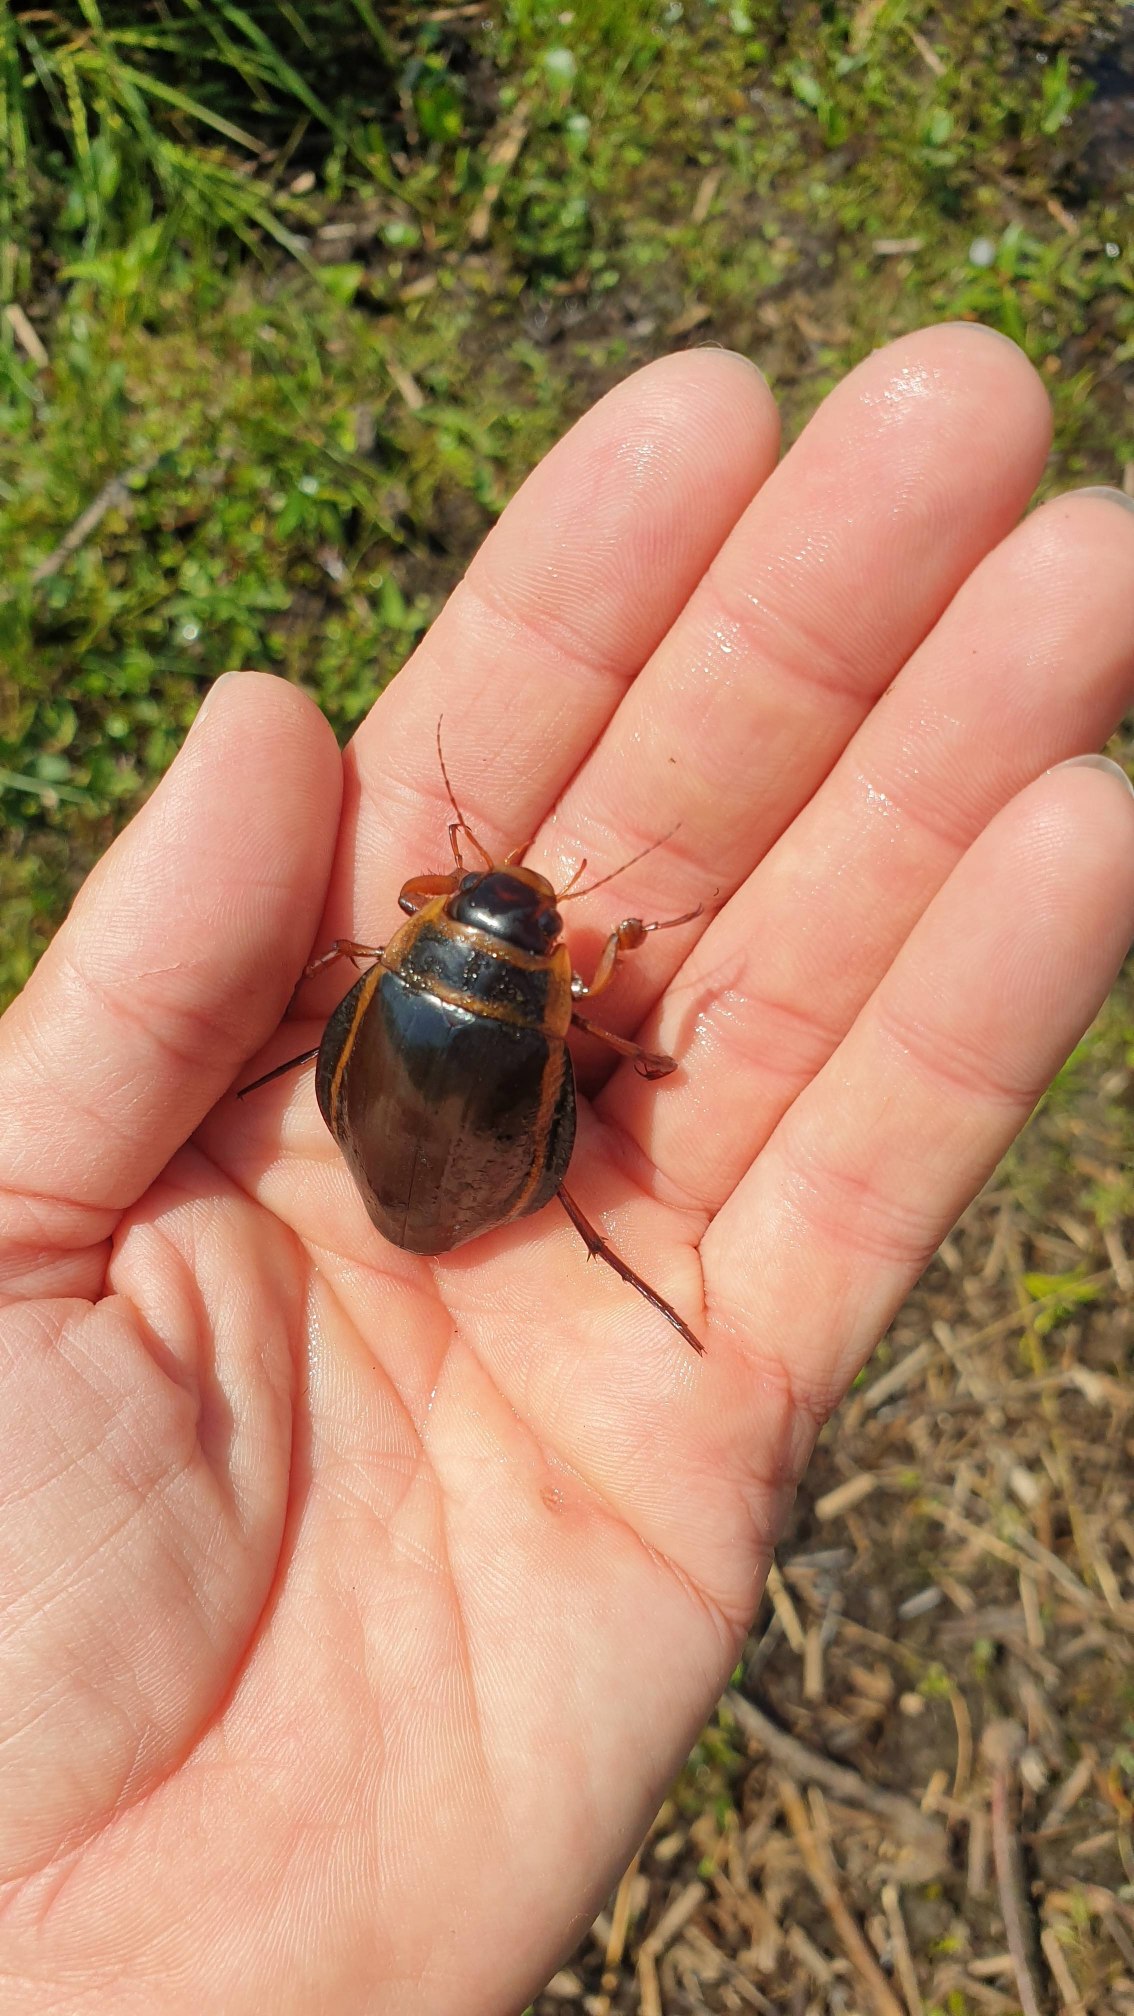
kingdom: Animalia
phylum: Arthropoda
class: Insecta
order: Coleoptera
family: Dytiscidae
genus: Dytiscus
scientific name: Dytiscus latissimus
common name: Bred vandkalv
